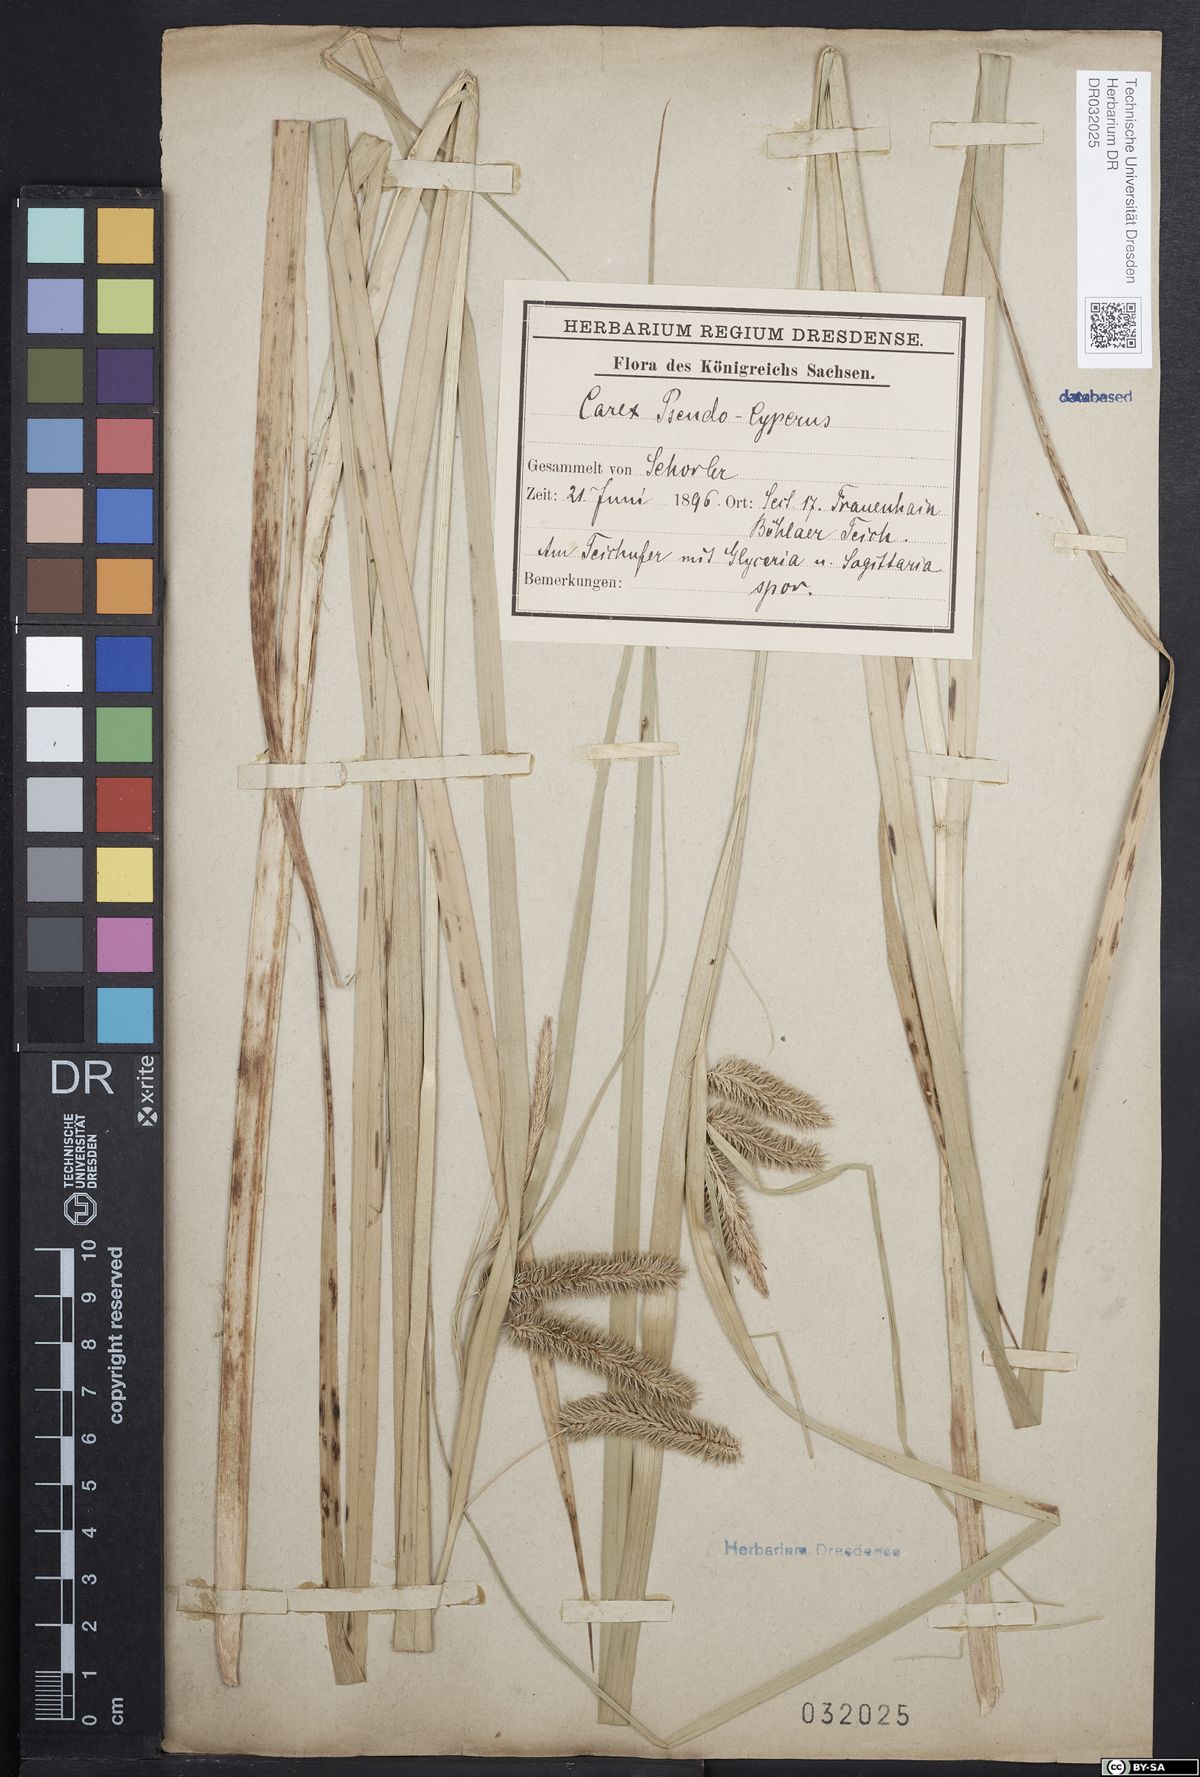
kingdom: Plantae
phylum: Tracheophyta
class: Liliopsida
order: Poales
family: Cyperaceae
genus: Carex
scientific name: Carex pseudocyperus
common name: Cyperus sedge
